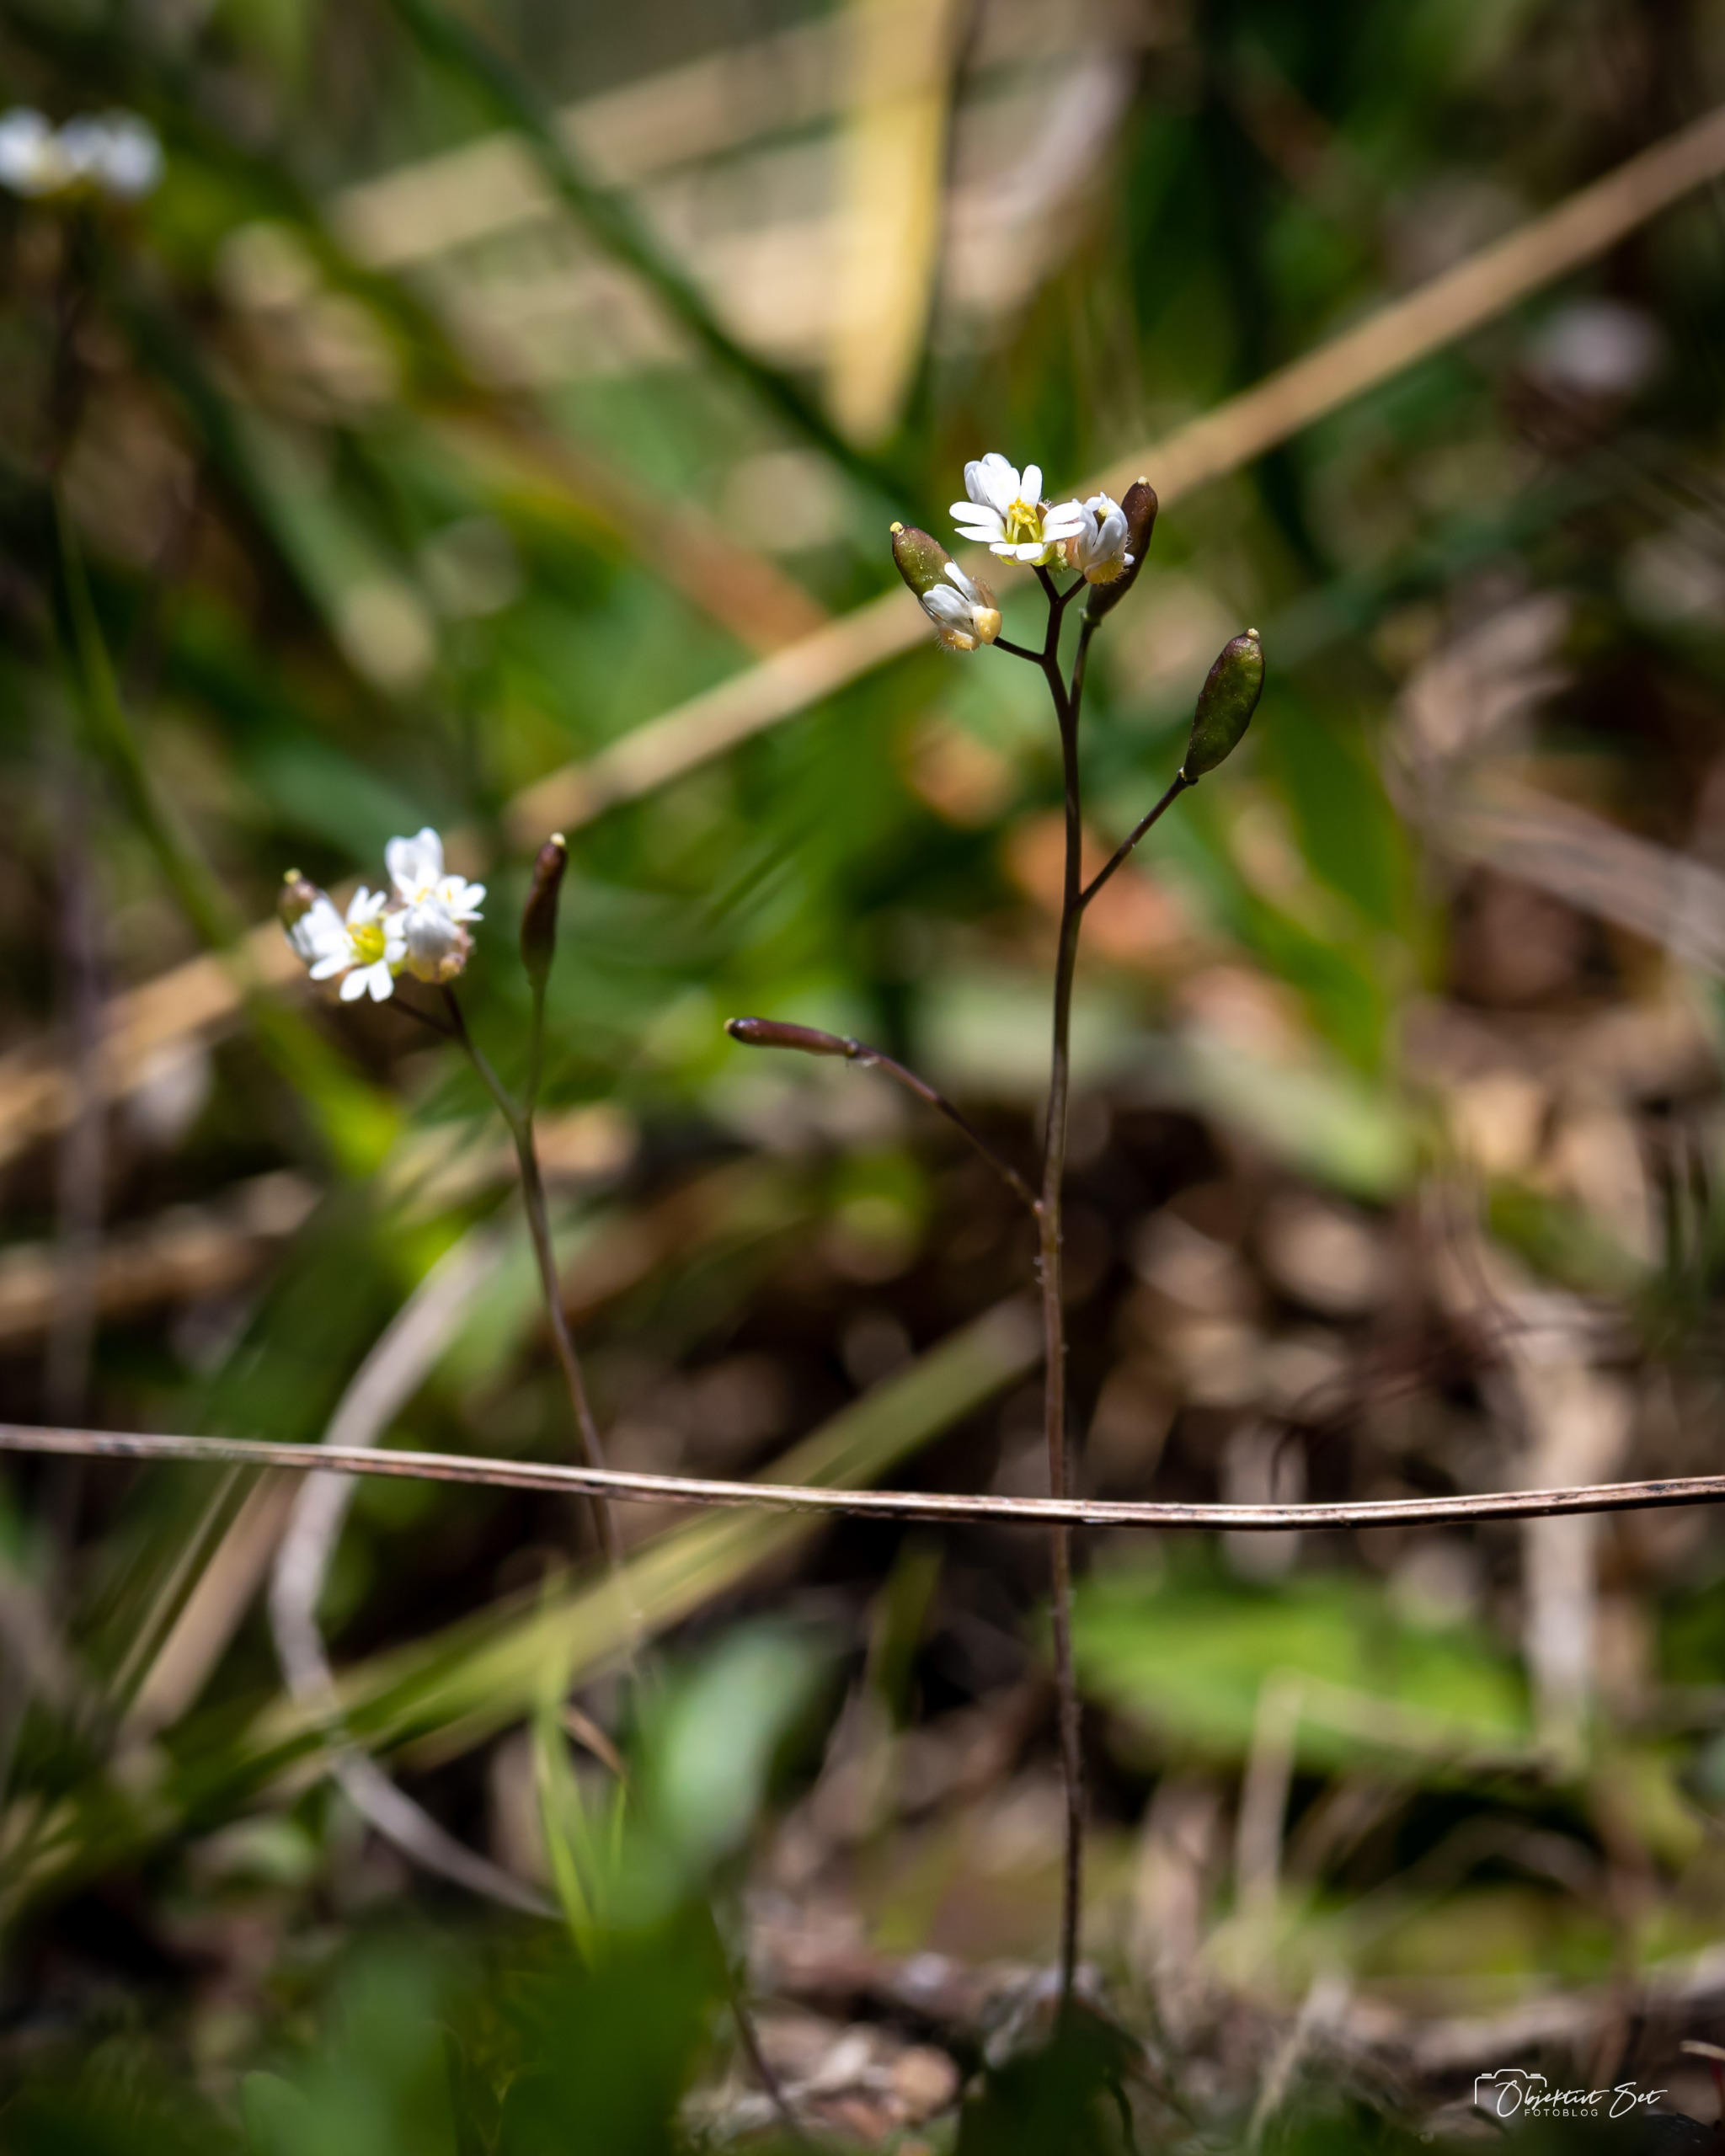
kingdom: Plantae
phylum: Tracheophyta
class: Magnoliopsida
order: Brassicales
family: Brassicaceae
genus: Draba
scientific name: Draba verna
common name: Vår-gæslingeblomst
